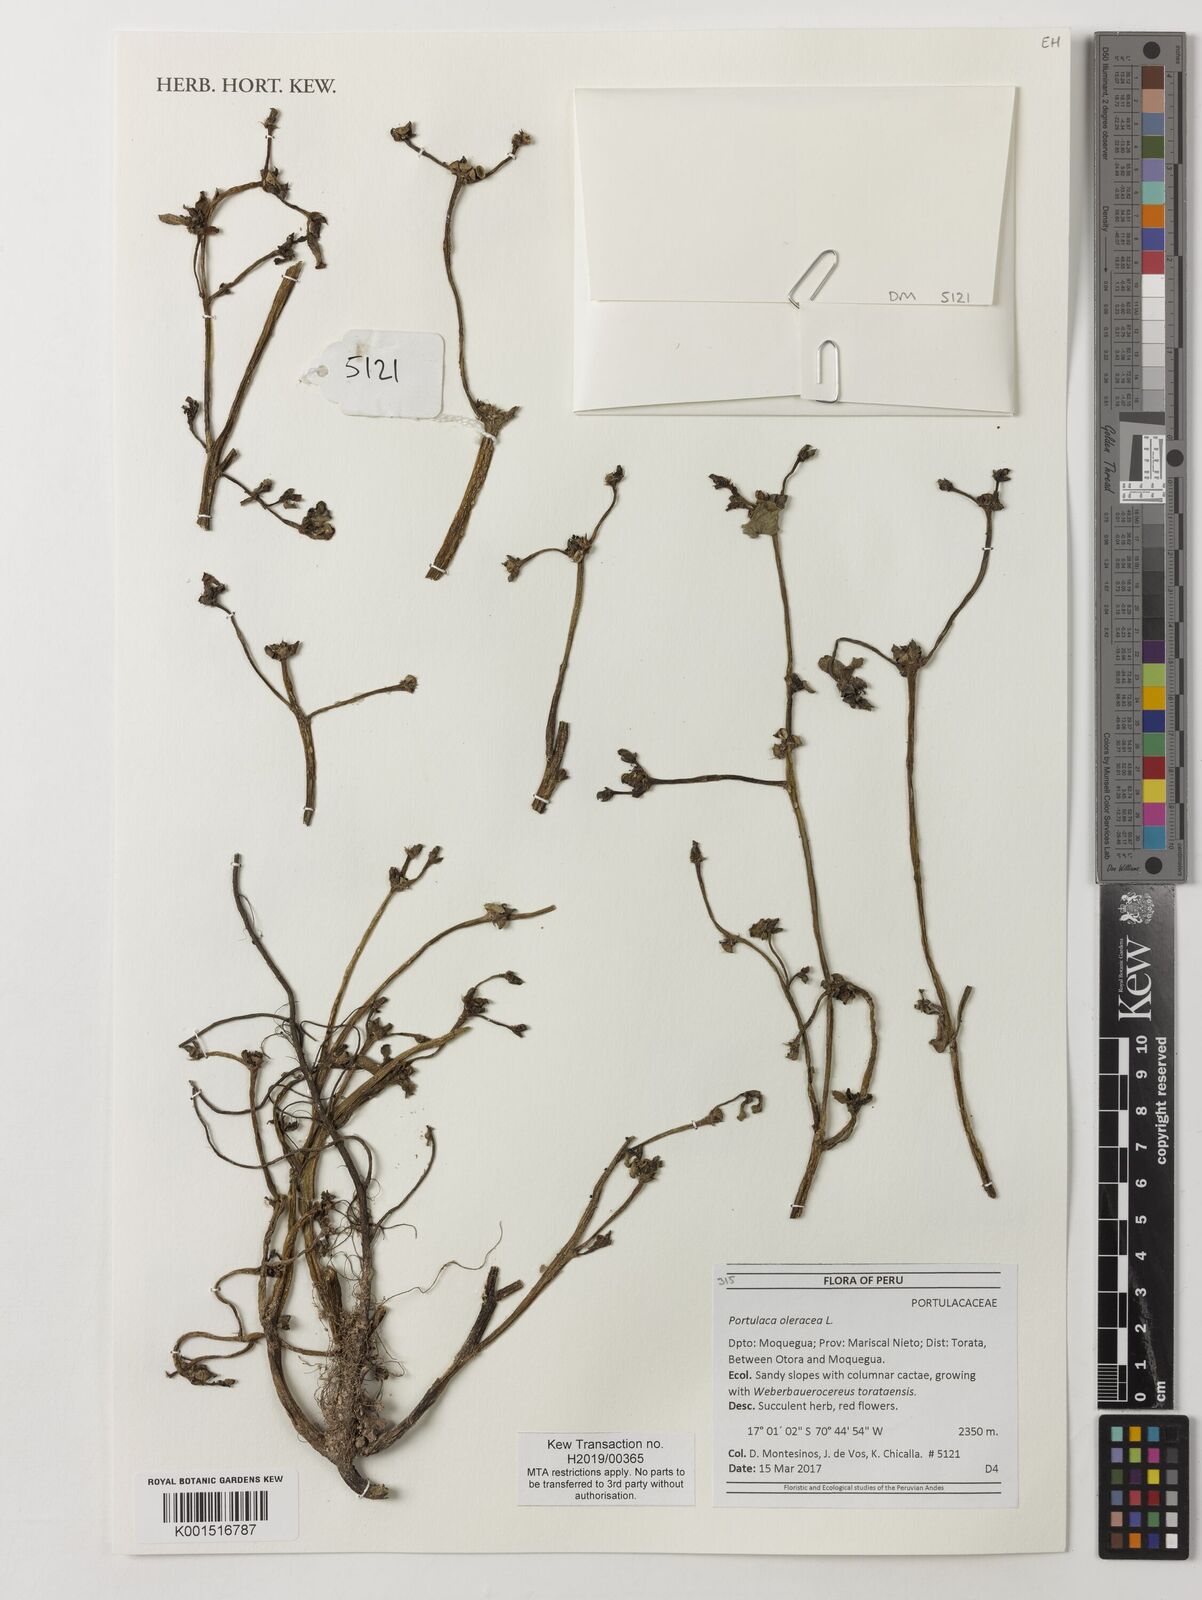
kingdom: Plantae
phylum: Tracheophyta
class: Magnoliopsida
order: Caryophyllales
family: Portulacaceae
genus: Portulaca
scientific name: Portulaca oleracea
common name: Common purslane
